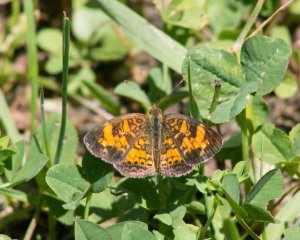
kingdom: Animalia
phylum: Arthropoda
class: Insecta
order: Lepidoptera
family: Nymphalidae
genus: Phyciodes
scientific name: Phyciodes tharos
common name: Pearl Crescent
